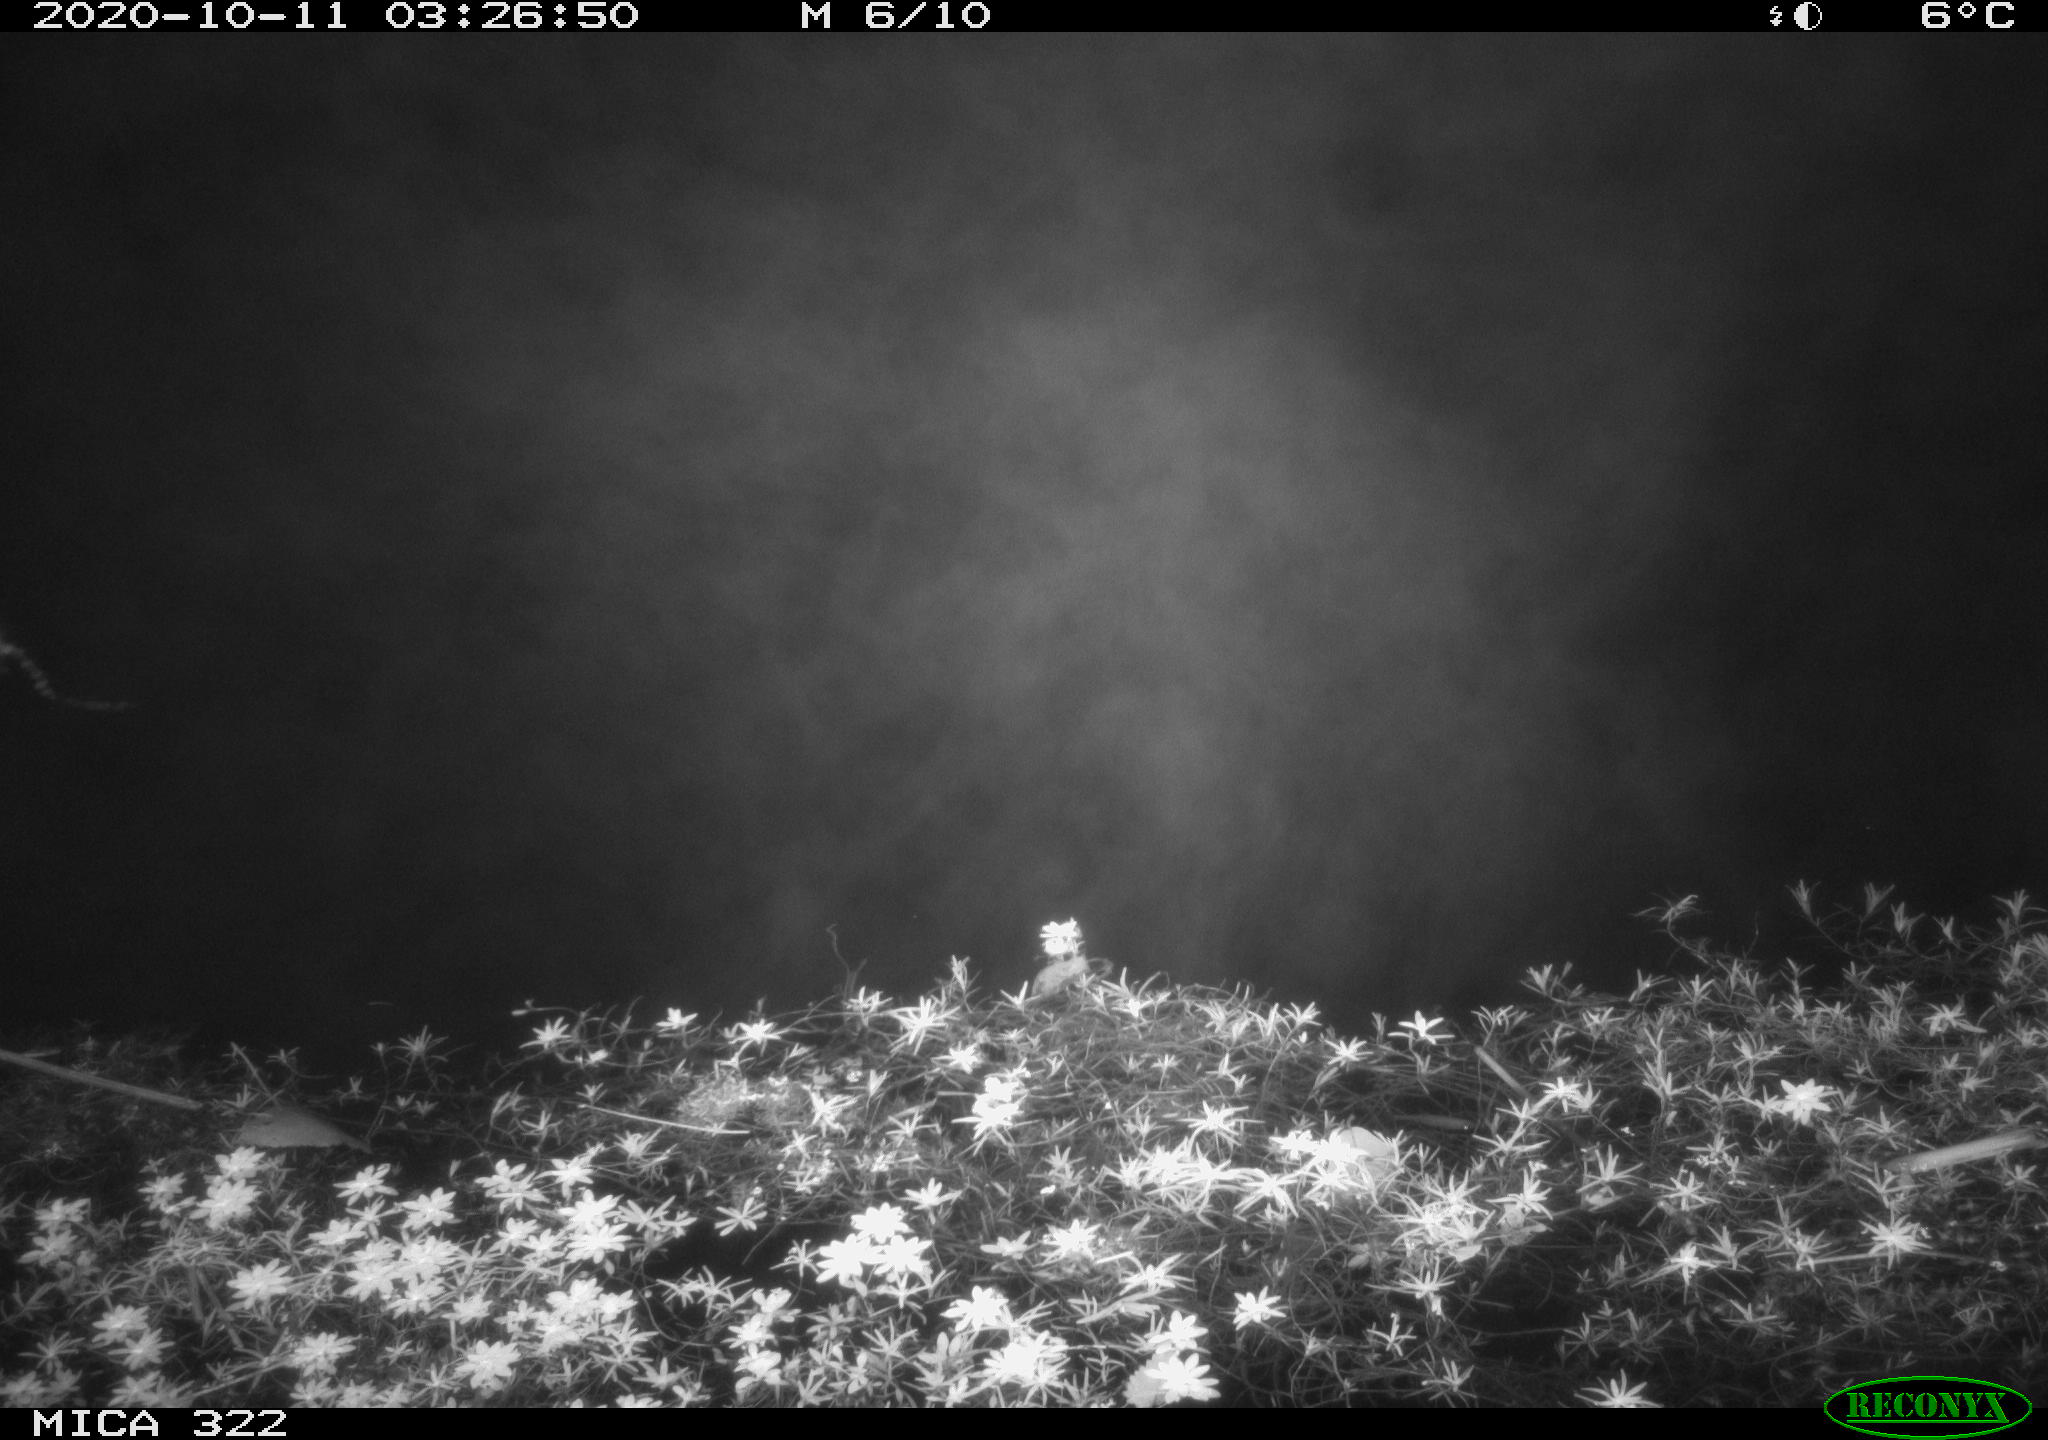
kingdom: Animalia
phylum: Chordata
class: Mammalia
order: Rodentia
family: Muridae
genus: Rattus
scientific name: Rattus norvegicus
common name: Brown rat
